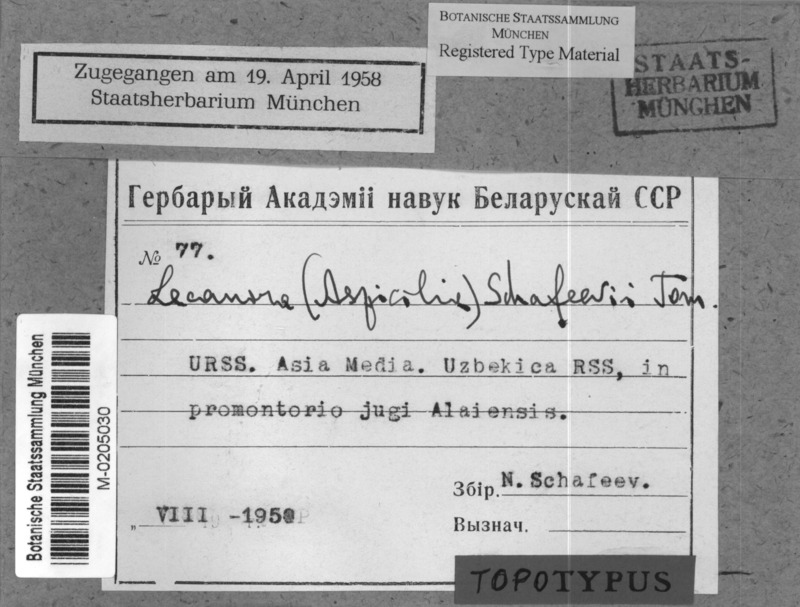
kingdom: Fungi
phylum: Ascomycota
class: Lecanoromycetes
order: Pertusariales
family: Megasporaceae
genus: Circinaria
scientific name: Circinaria schafeevii
